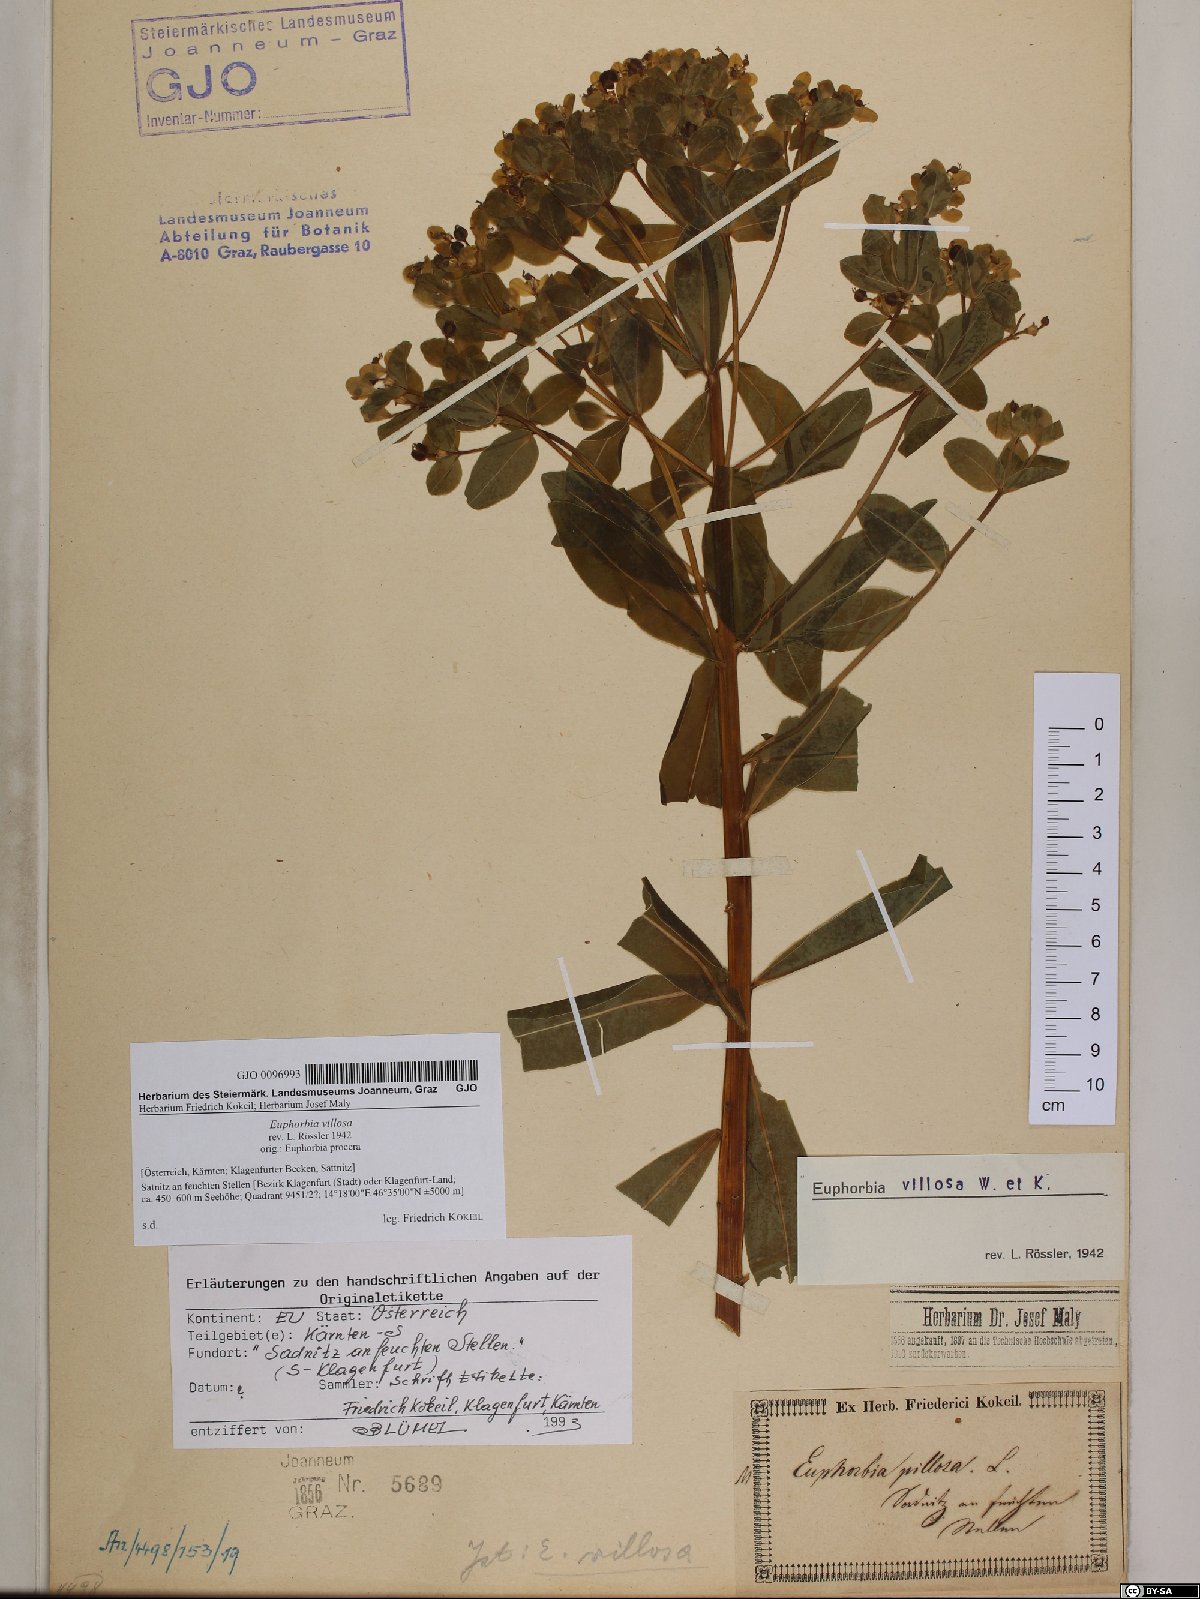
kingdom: Plantae
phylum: Tracheophyta
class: Magnoliopsida
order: Malpighiales
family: Euphorbiaceae
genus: Euphorbia
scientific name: Euphorbia illirica
